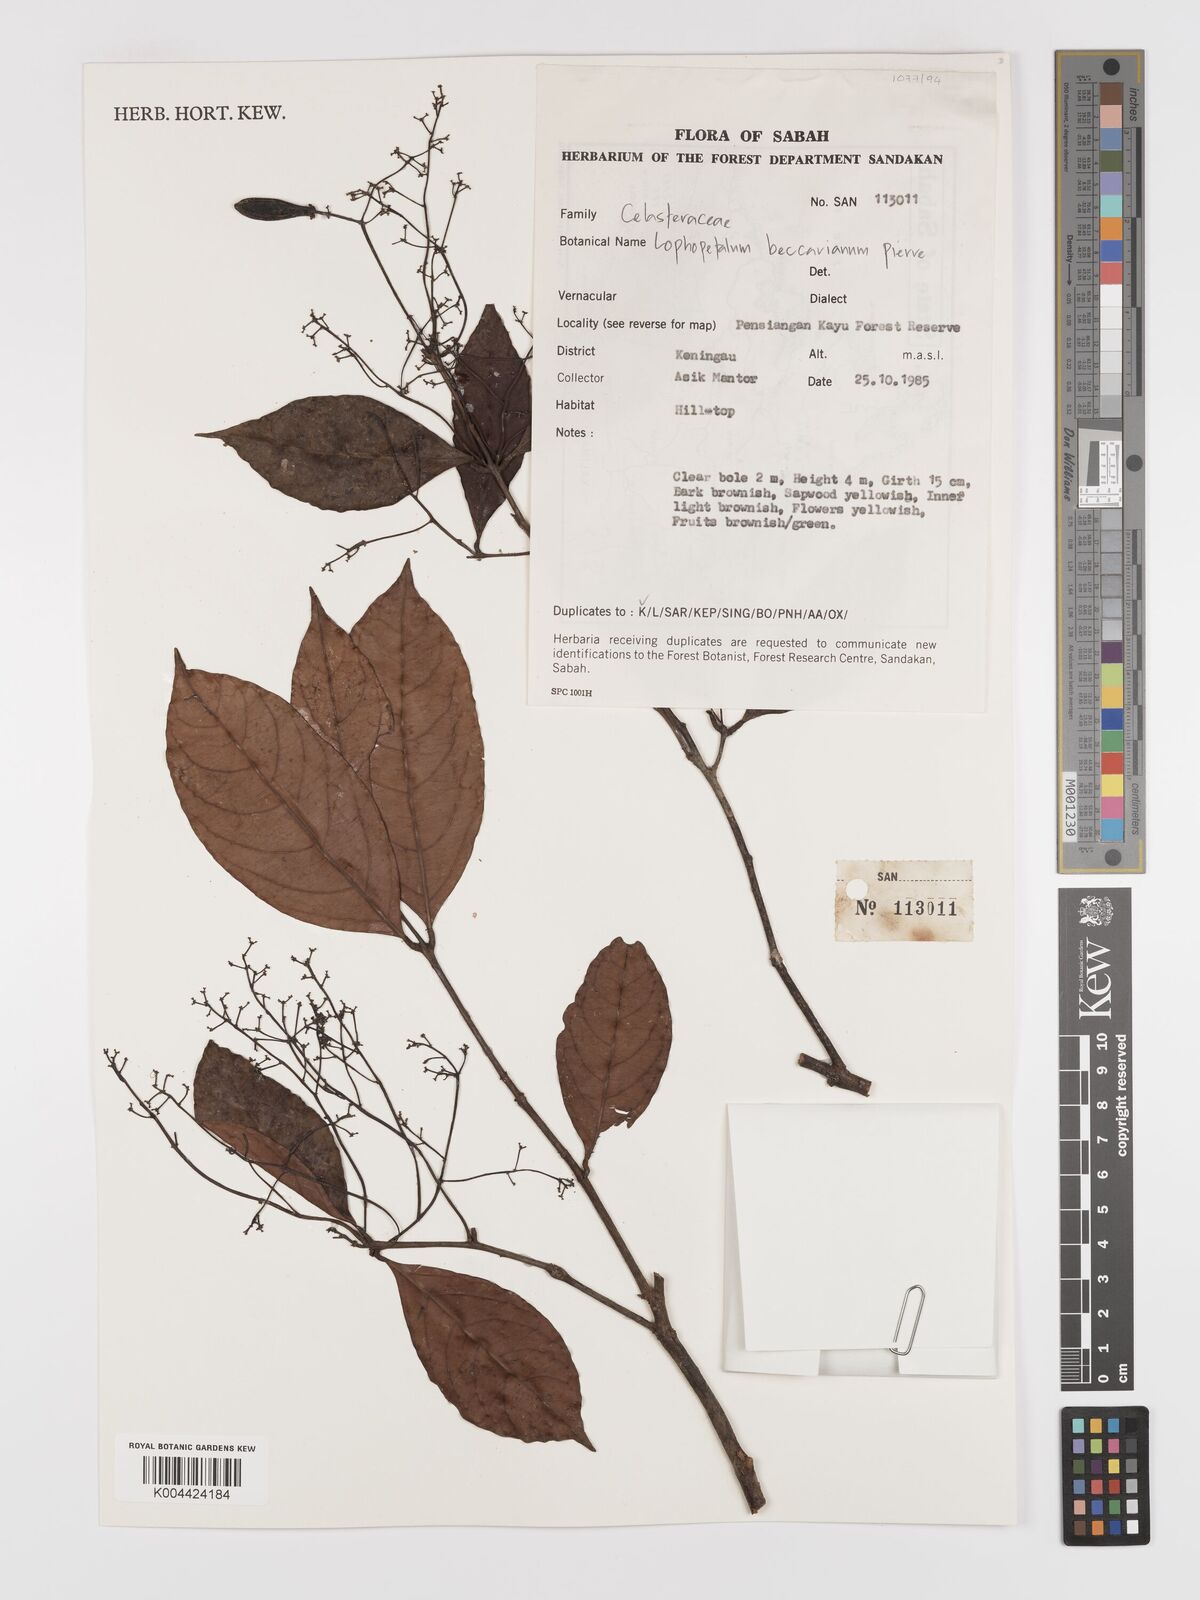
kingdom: Plantae
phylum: Tracheophyta
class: Magnoliopsida
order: Celastrales
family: Celastraceae
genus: Lophopetalum
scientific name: Lophopetalum beccarianum
